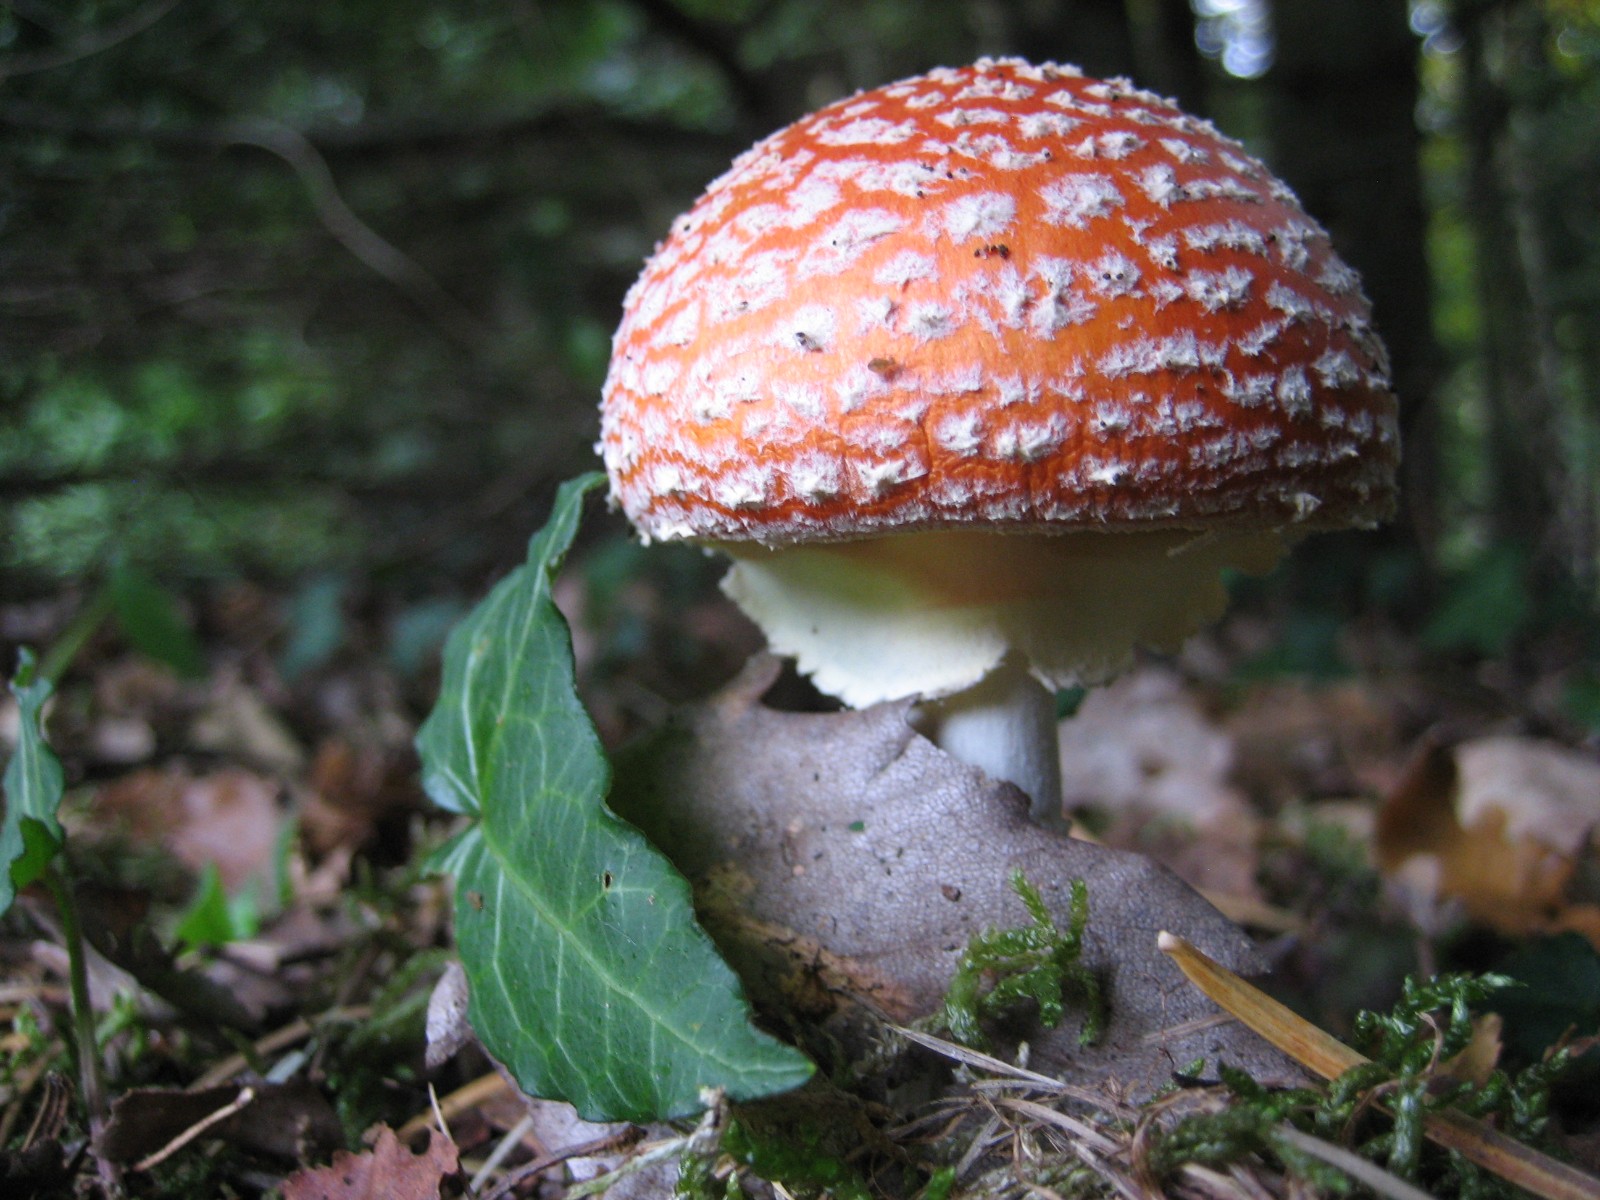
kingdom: Fungi
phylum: Basidiomycota
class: Agaricomycetes
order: Agaricales
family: Amanitaceae
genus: Amanita
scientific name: Amanita muscaria
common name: rød fluesvamp
